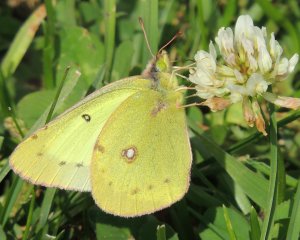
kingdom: Animalia
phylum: Arthropoda
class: Insecta
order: Lepidoptera
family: Pieridae
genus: Colias
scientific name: Colias philodice
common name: Clouded Sulphur
